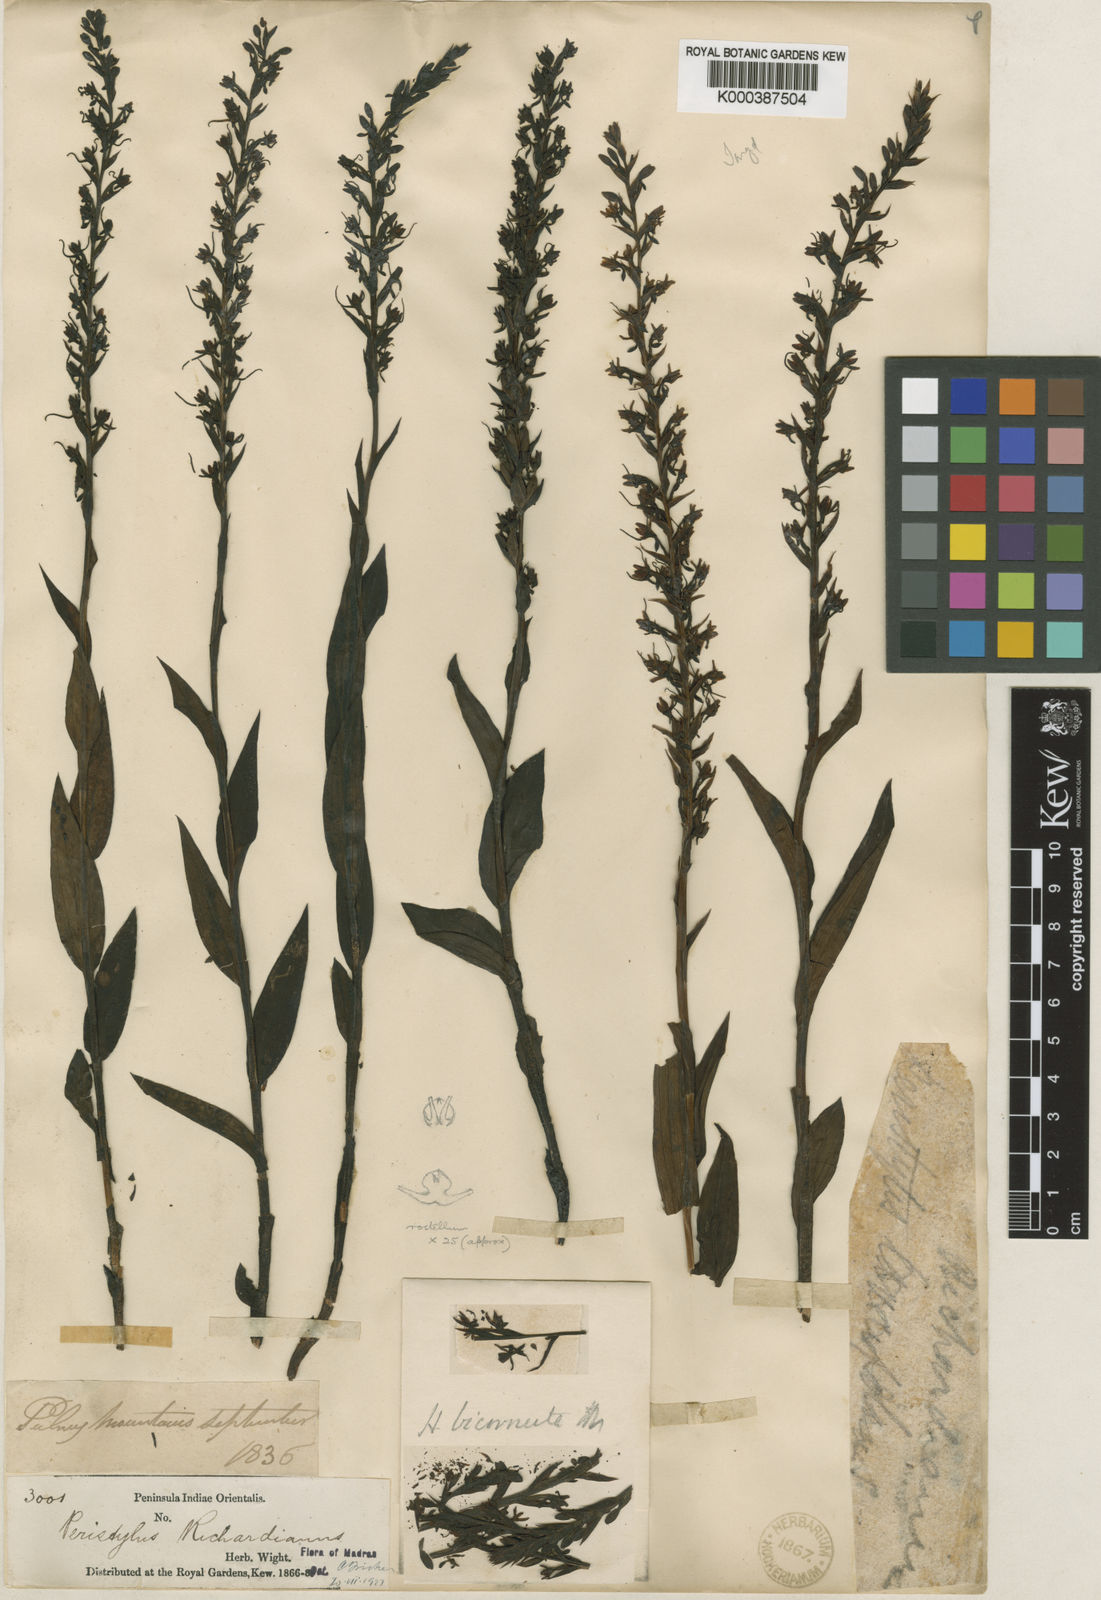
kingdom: Plantae
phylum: Tracheophyta
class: Liliopsida
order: Asparagales
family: Orchidaceae
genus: Peristylus
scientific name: Peristylus richardianus
